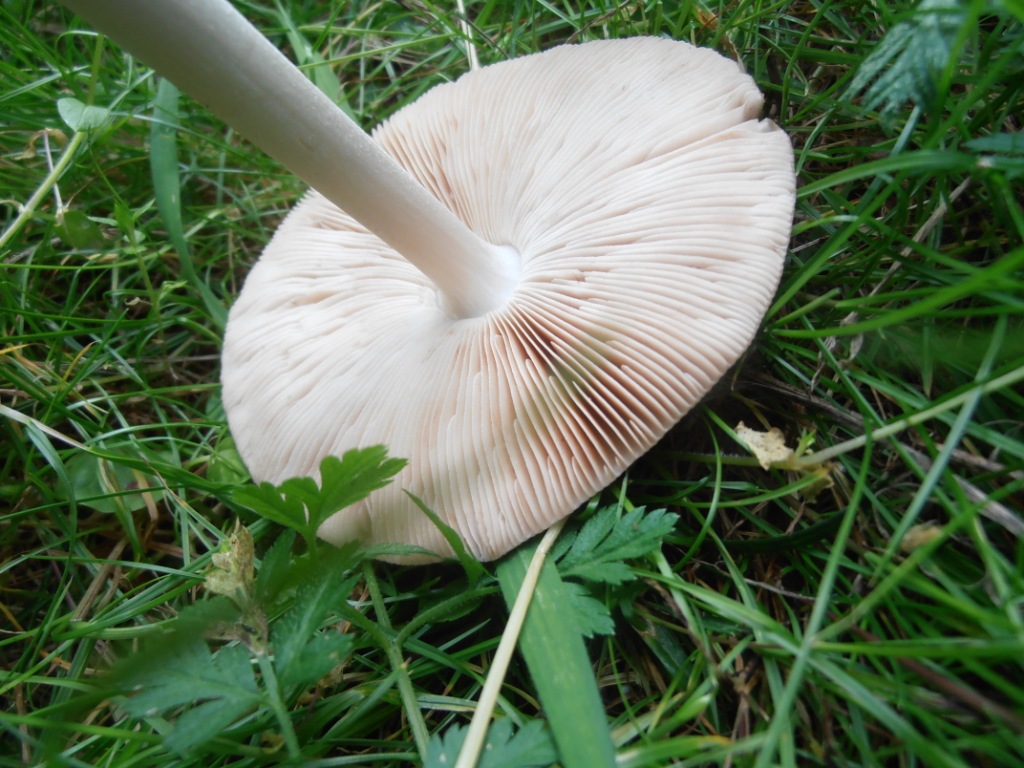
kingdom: Fungi
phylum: Basidiomycota
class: Agaricomycetes
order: Agaricales
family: Pluteaceae
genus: Volvopluteus
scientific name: Volvopluteus gloiocephalus
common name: høj posesvamp
